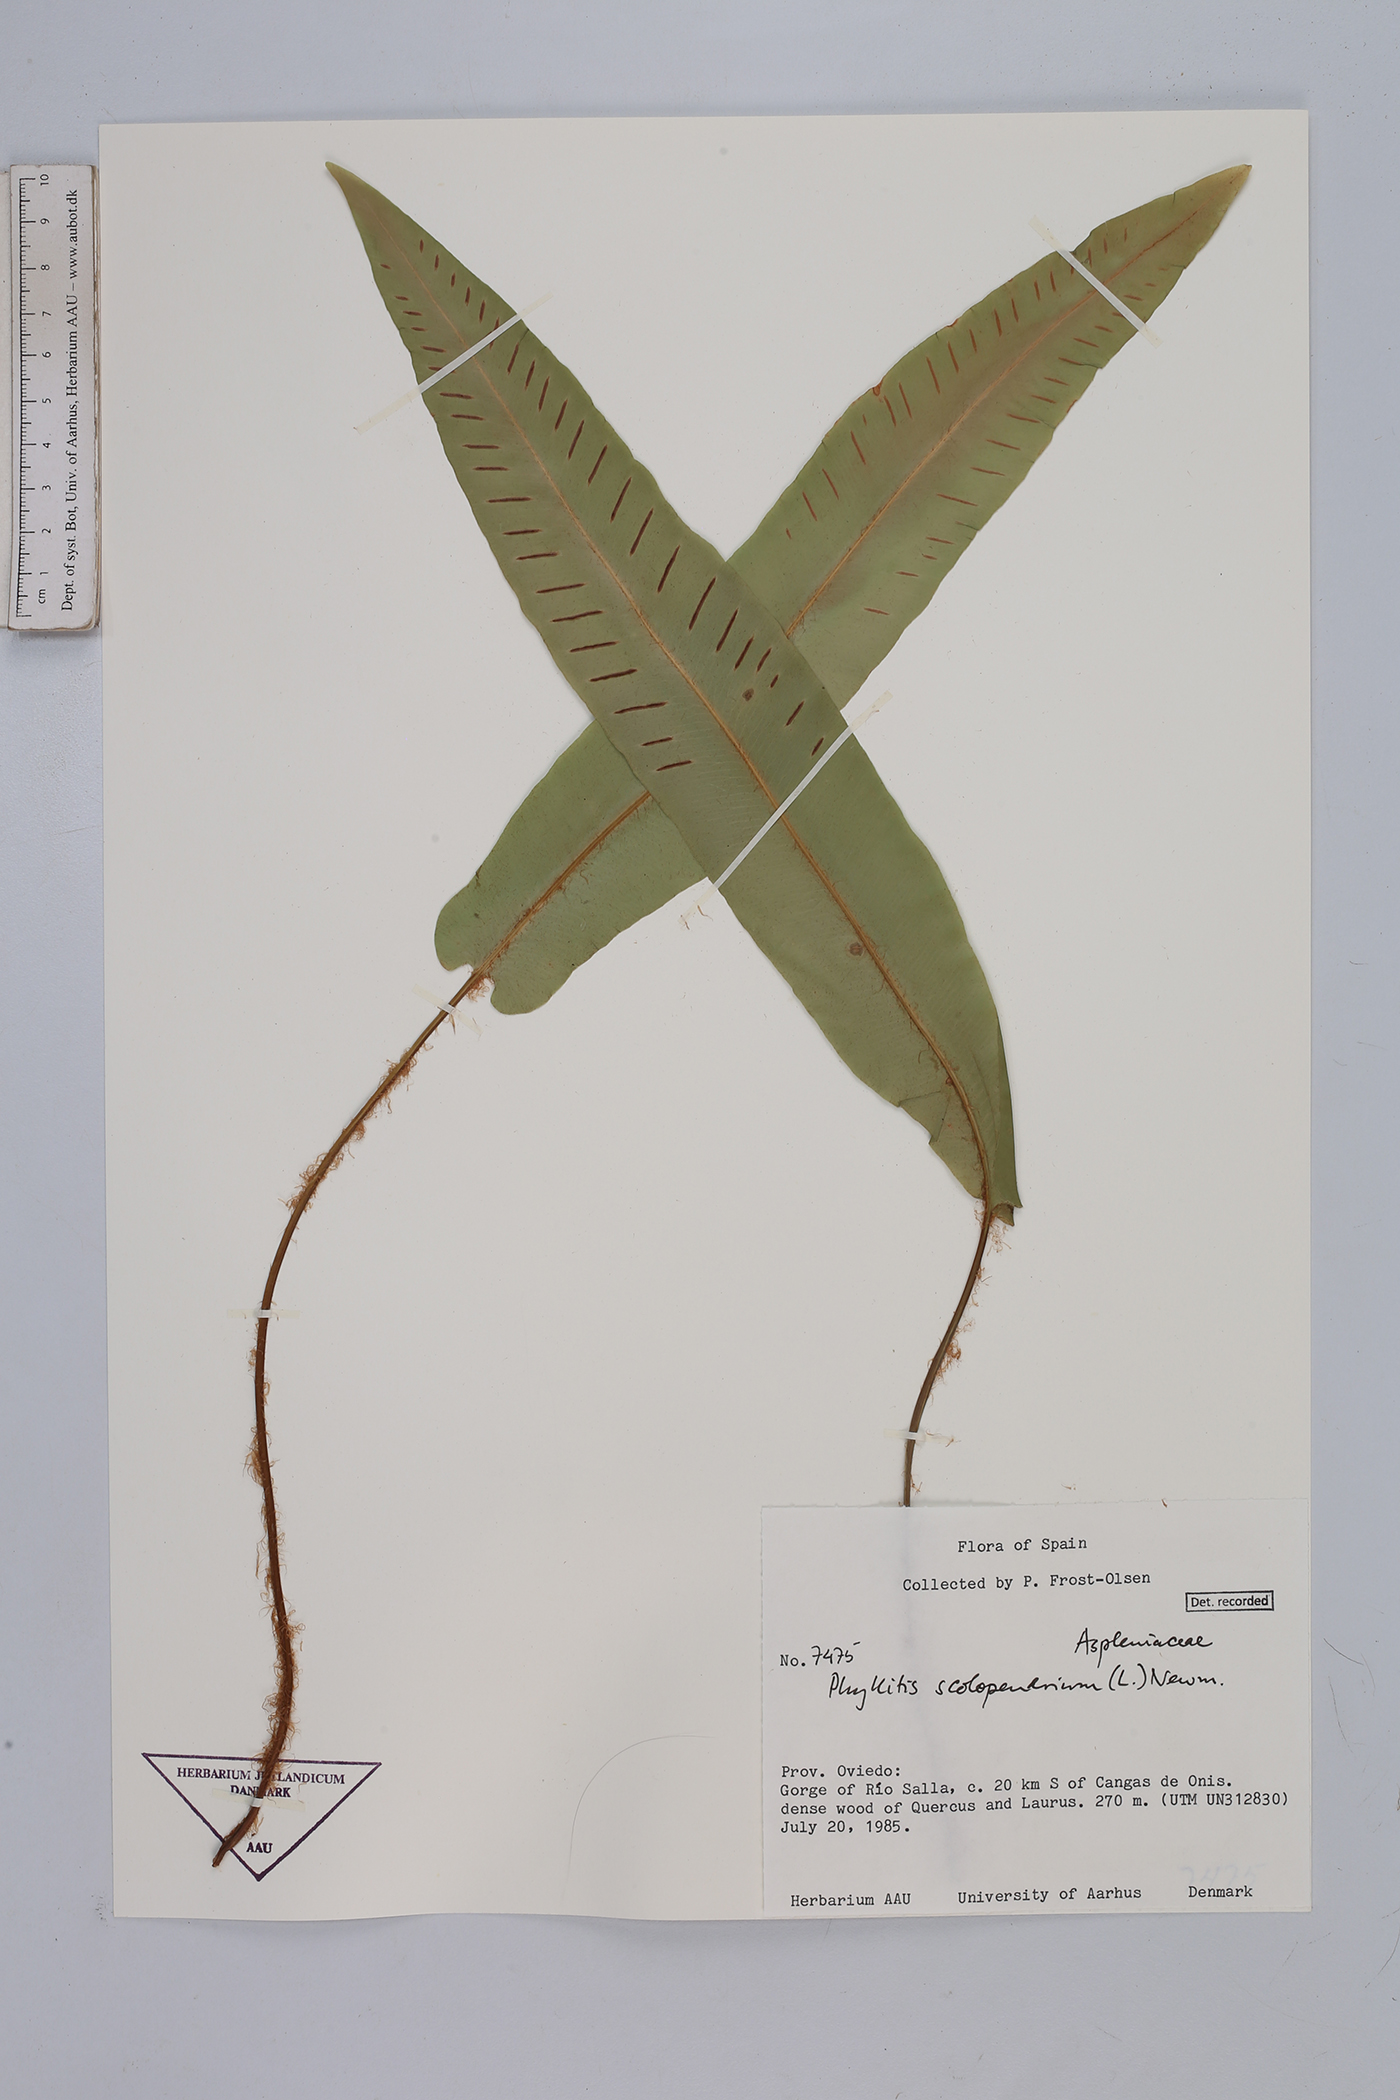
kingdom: Plantae
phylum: Tracheophyta
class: Polypodiopsida
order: Polypodiales
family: Aspleniaceae
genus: Asplenium
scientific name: Asplenium scolopendrium
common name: Hart's-tongue fern
